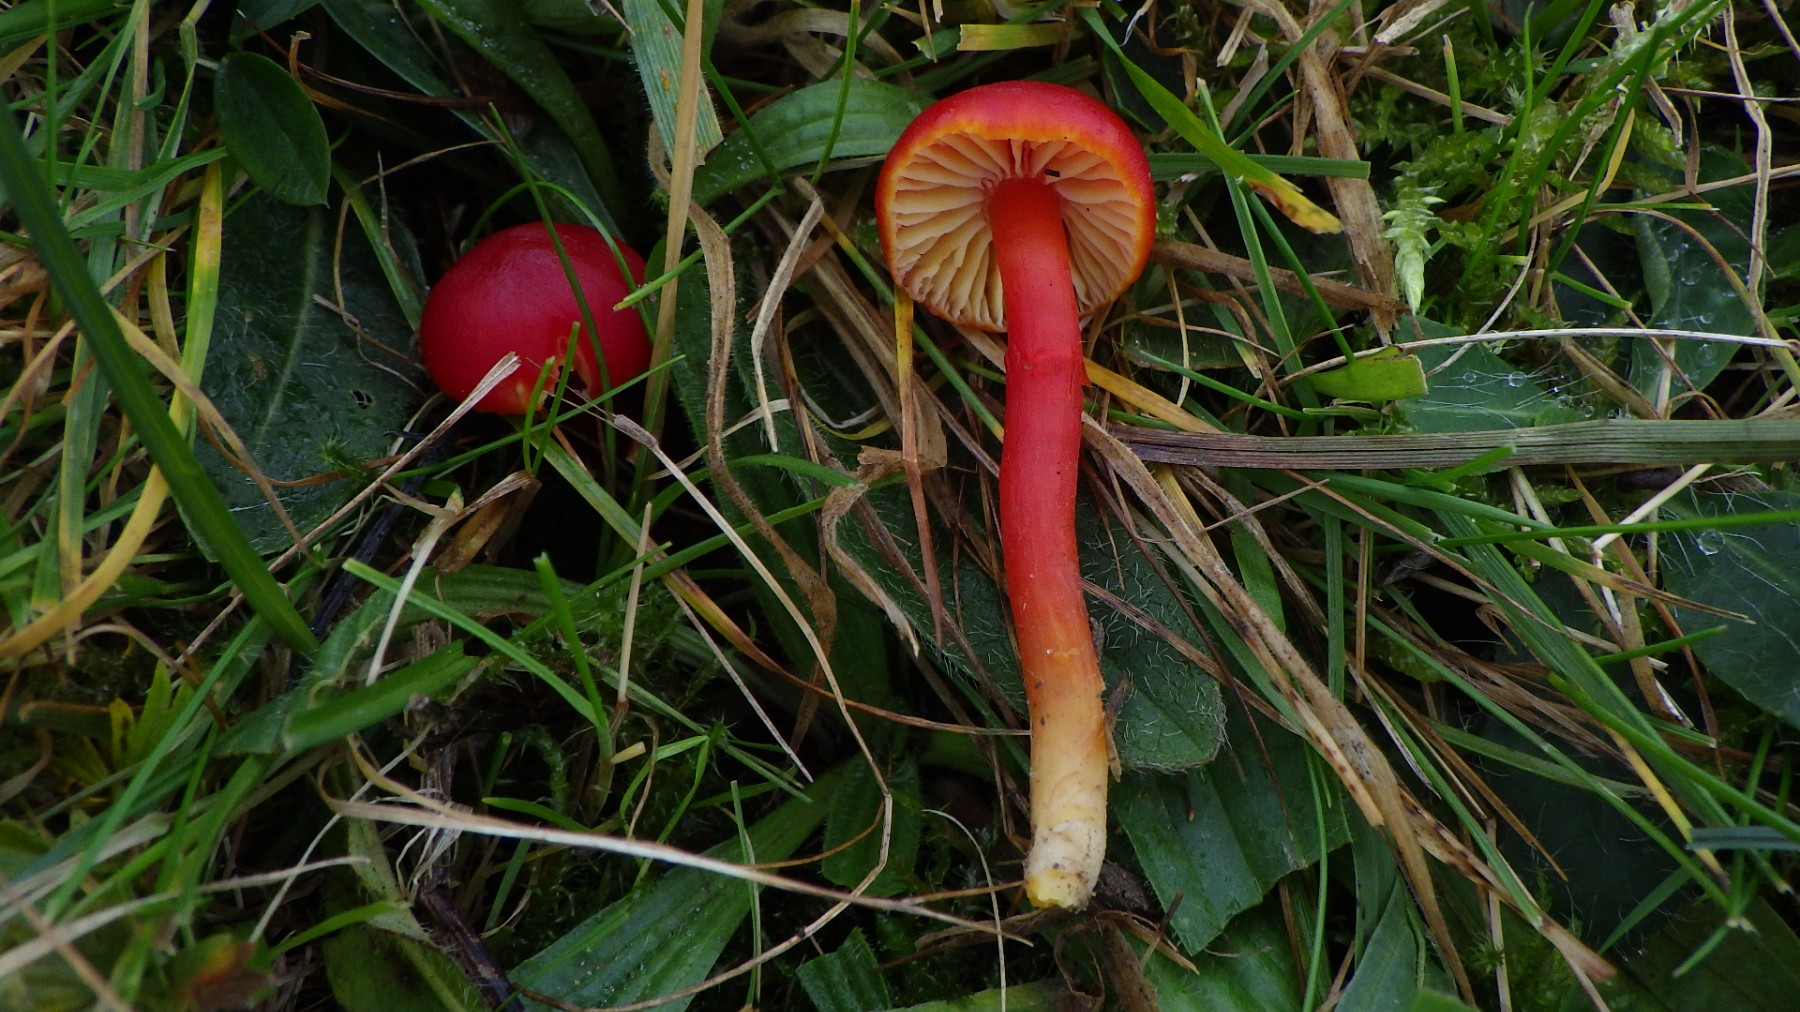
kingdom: Fungi
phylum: Basidiomycota
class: Agaricomycetes
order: Agaricales
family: Hygrophoraceae
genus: Hygrocybe
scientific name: Hygrocybe coccinea
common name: cinnober-vokshat
